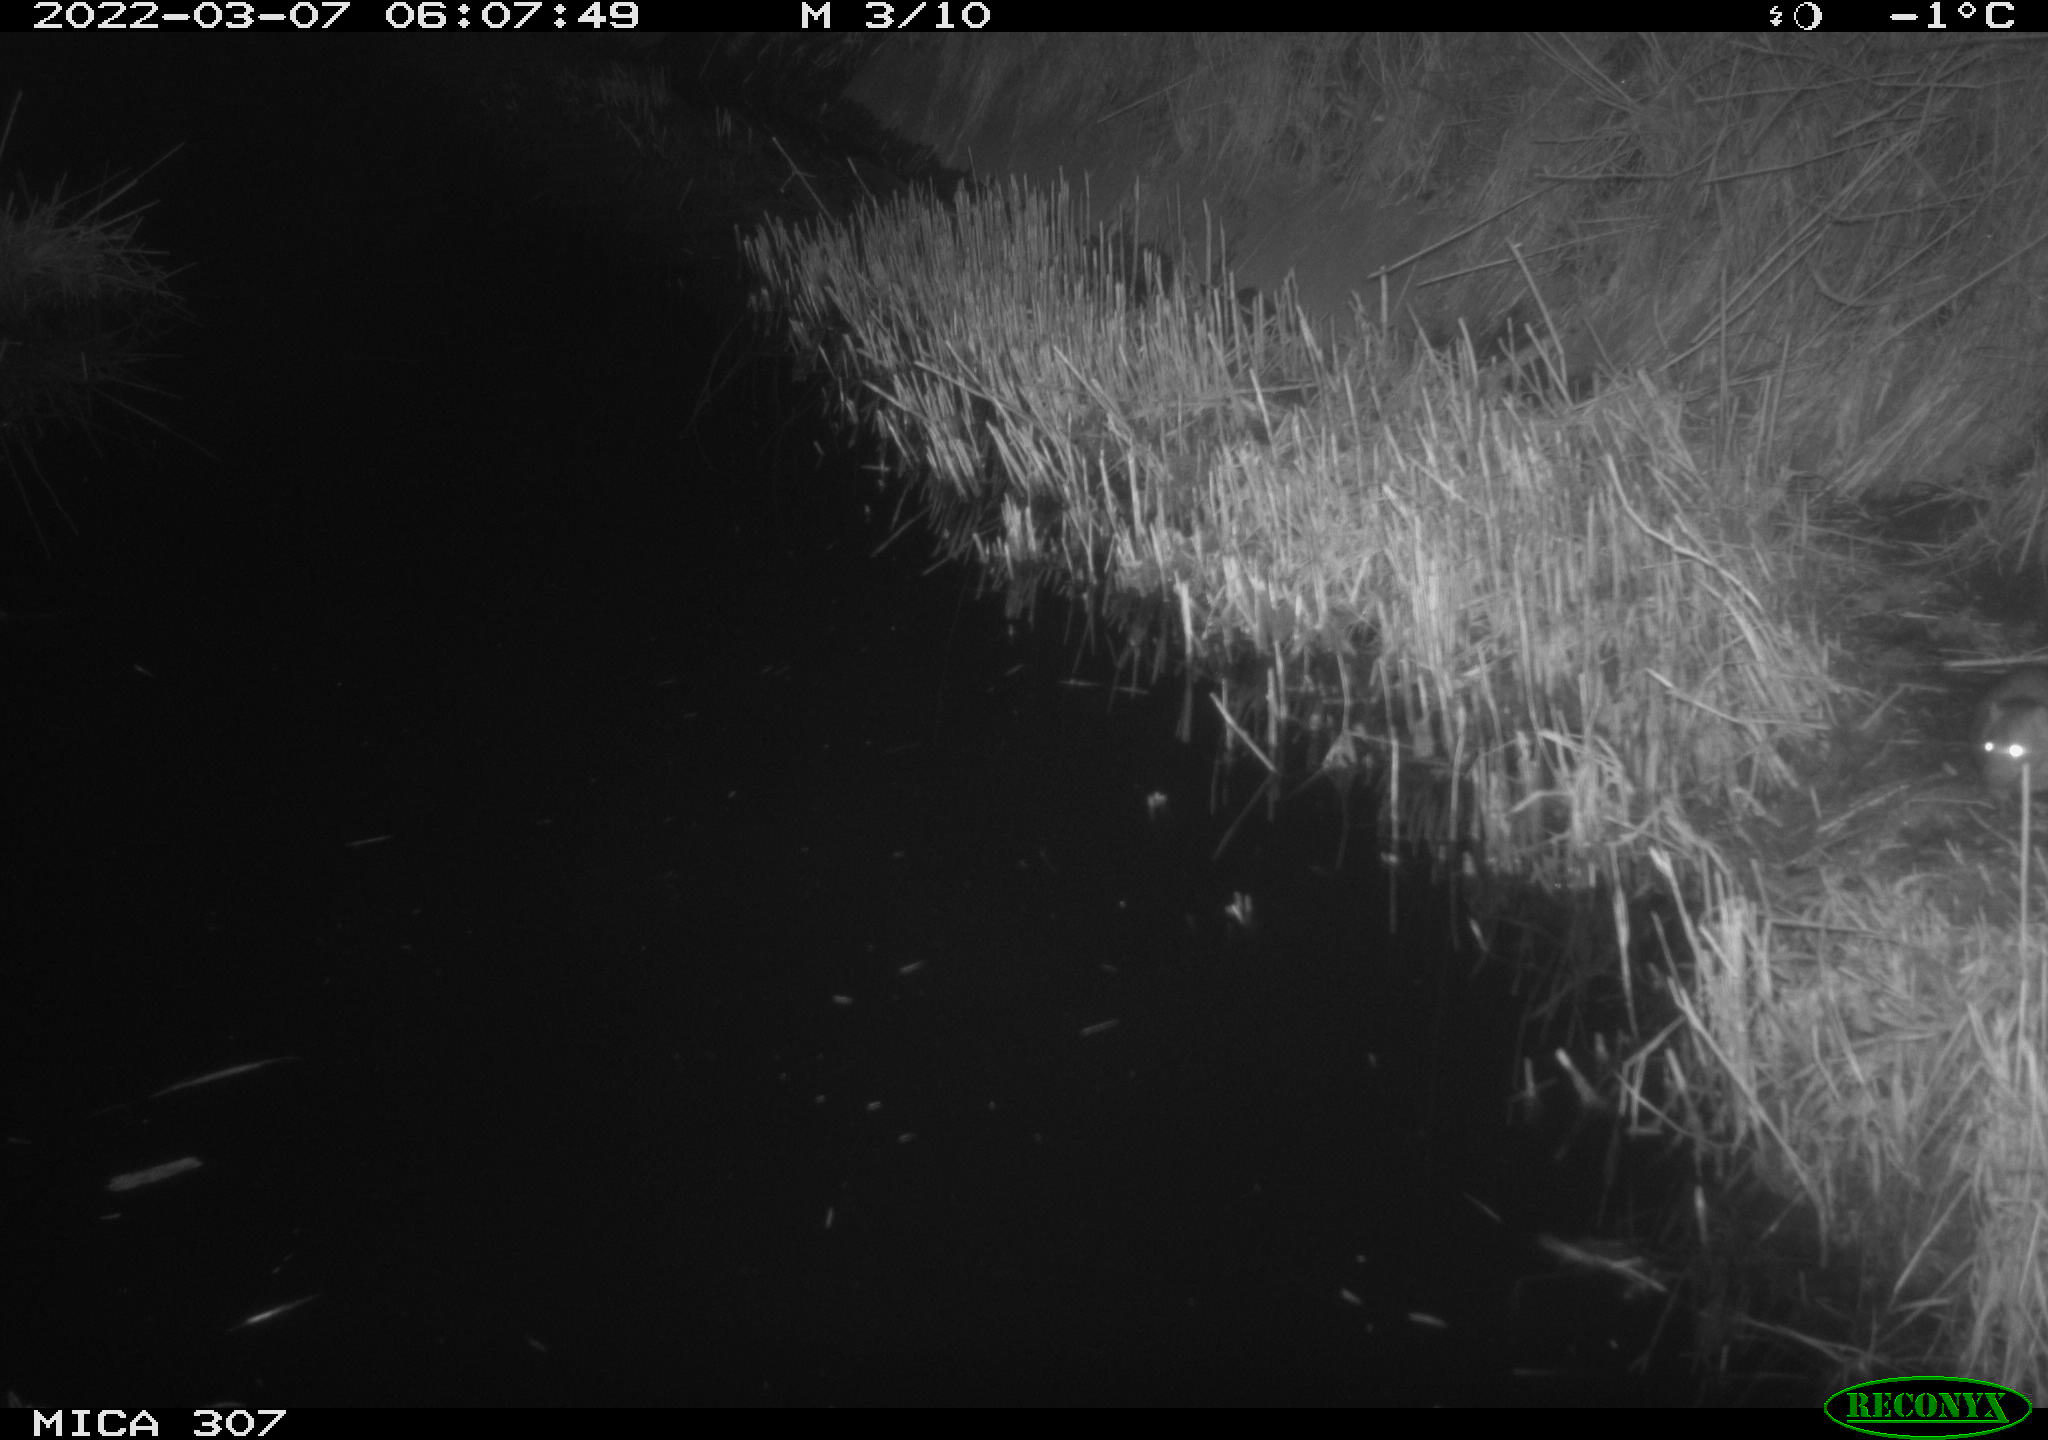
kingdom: Animalia
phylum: Chordata
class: Mammalia
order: Rodentia
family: Muridae
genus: Rattus
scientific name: Rattus norvegicus
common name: Brown rat
